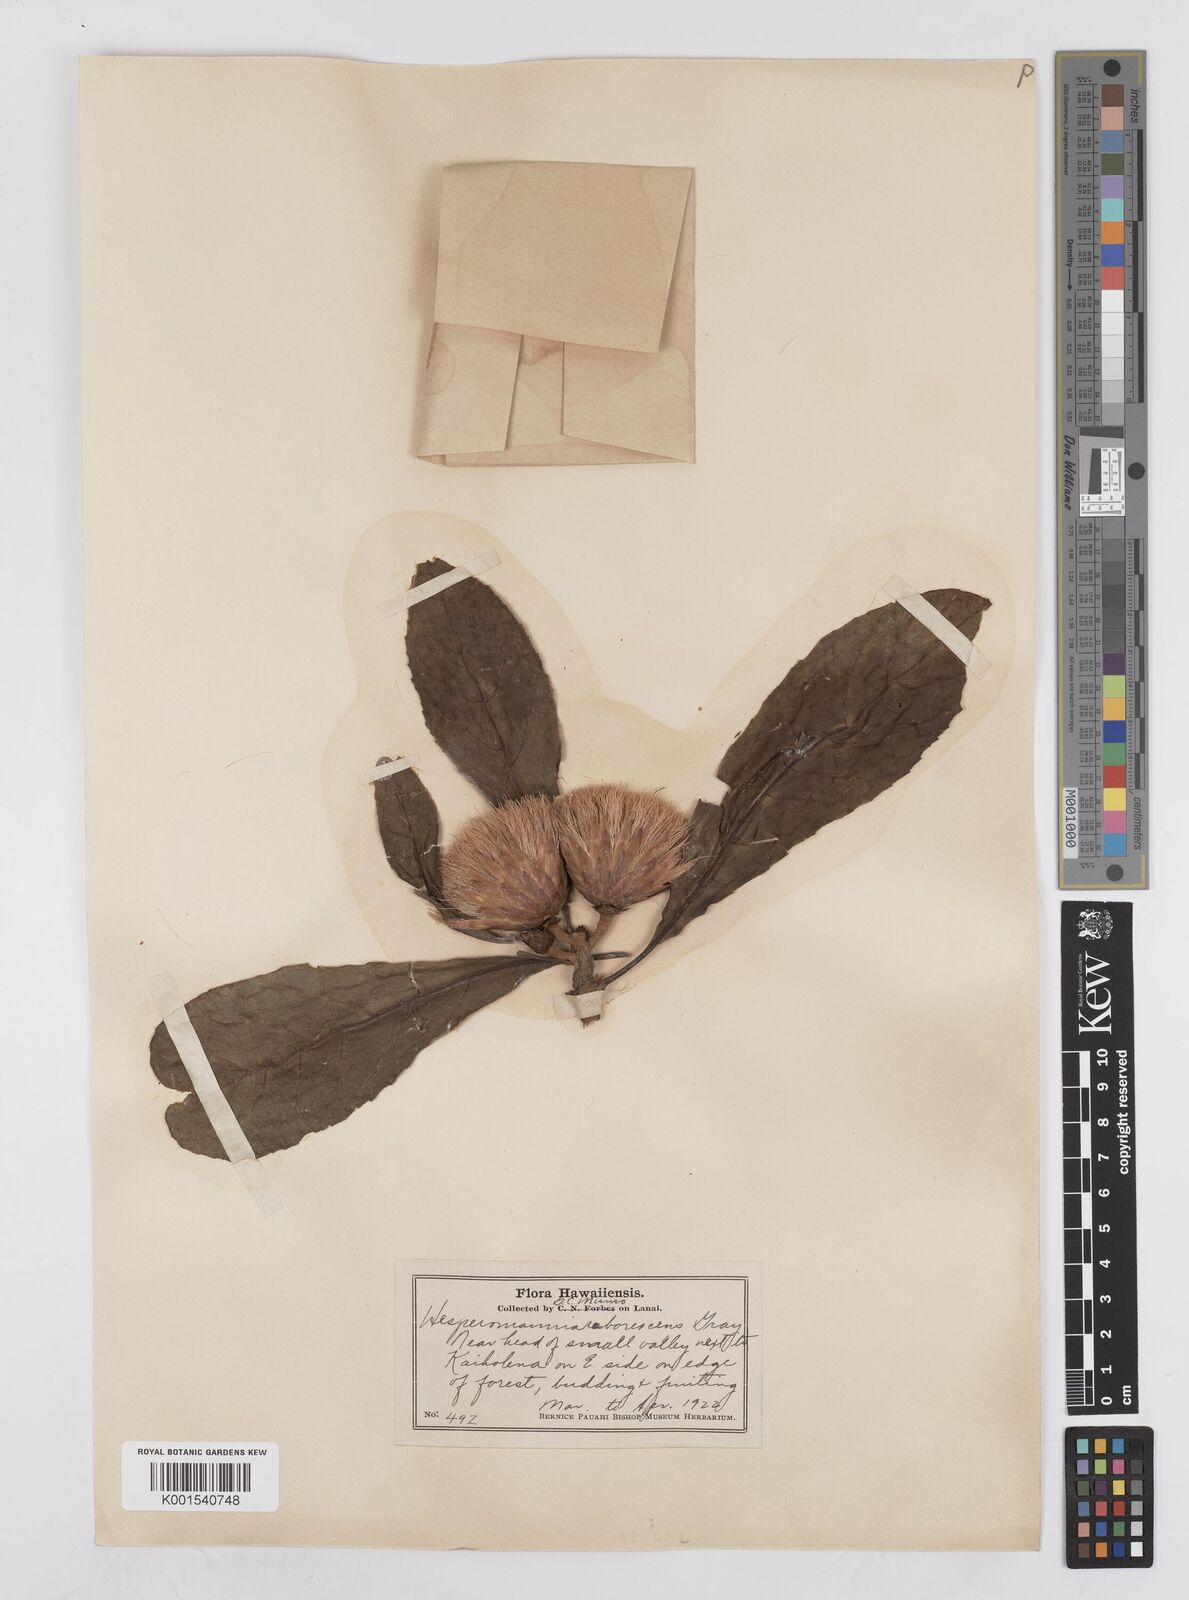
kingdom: Plantae
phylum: Tracheophyta
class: Magnoliopsida
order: Asterales
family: Asteraceae
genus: Hesperomannia
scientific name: Hesperomannia
